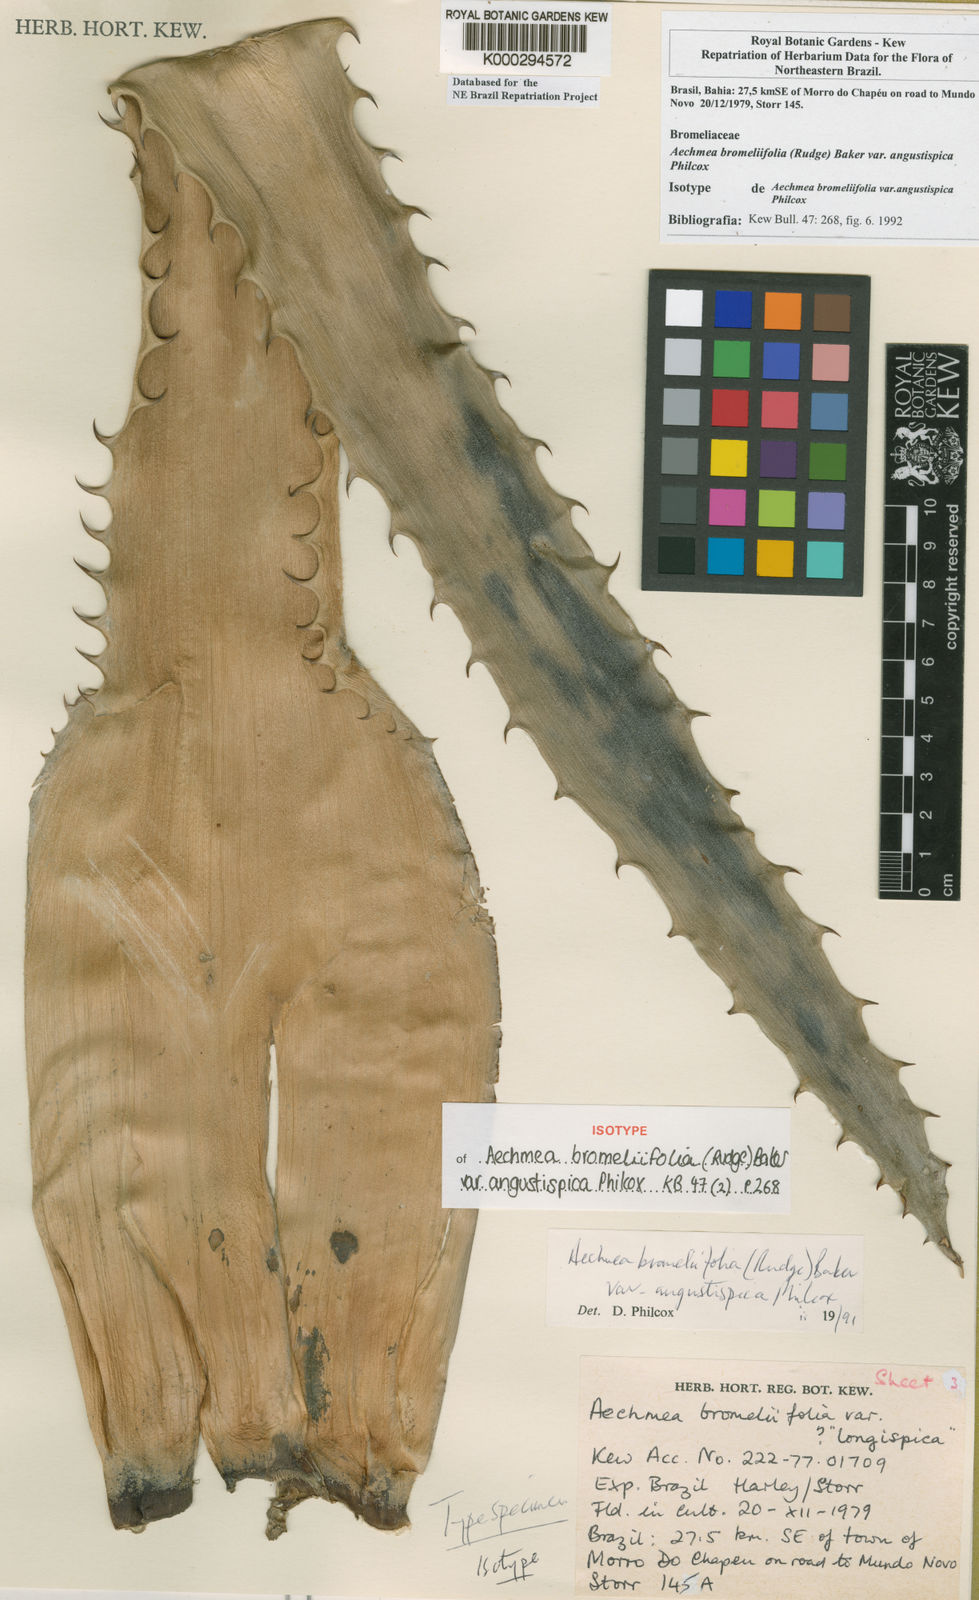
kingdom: Plantae
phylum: Tracheophyta
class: Liliopsida
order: Poales
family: Bromeliaceae
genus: Aechmea
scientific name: Aechmea bromeliifolia
